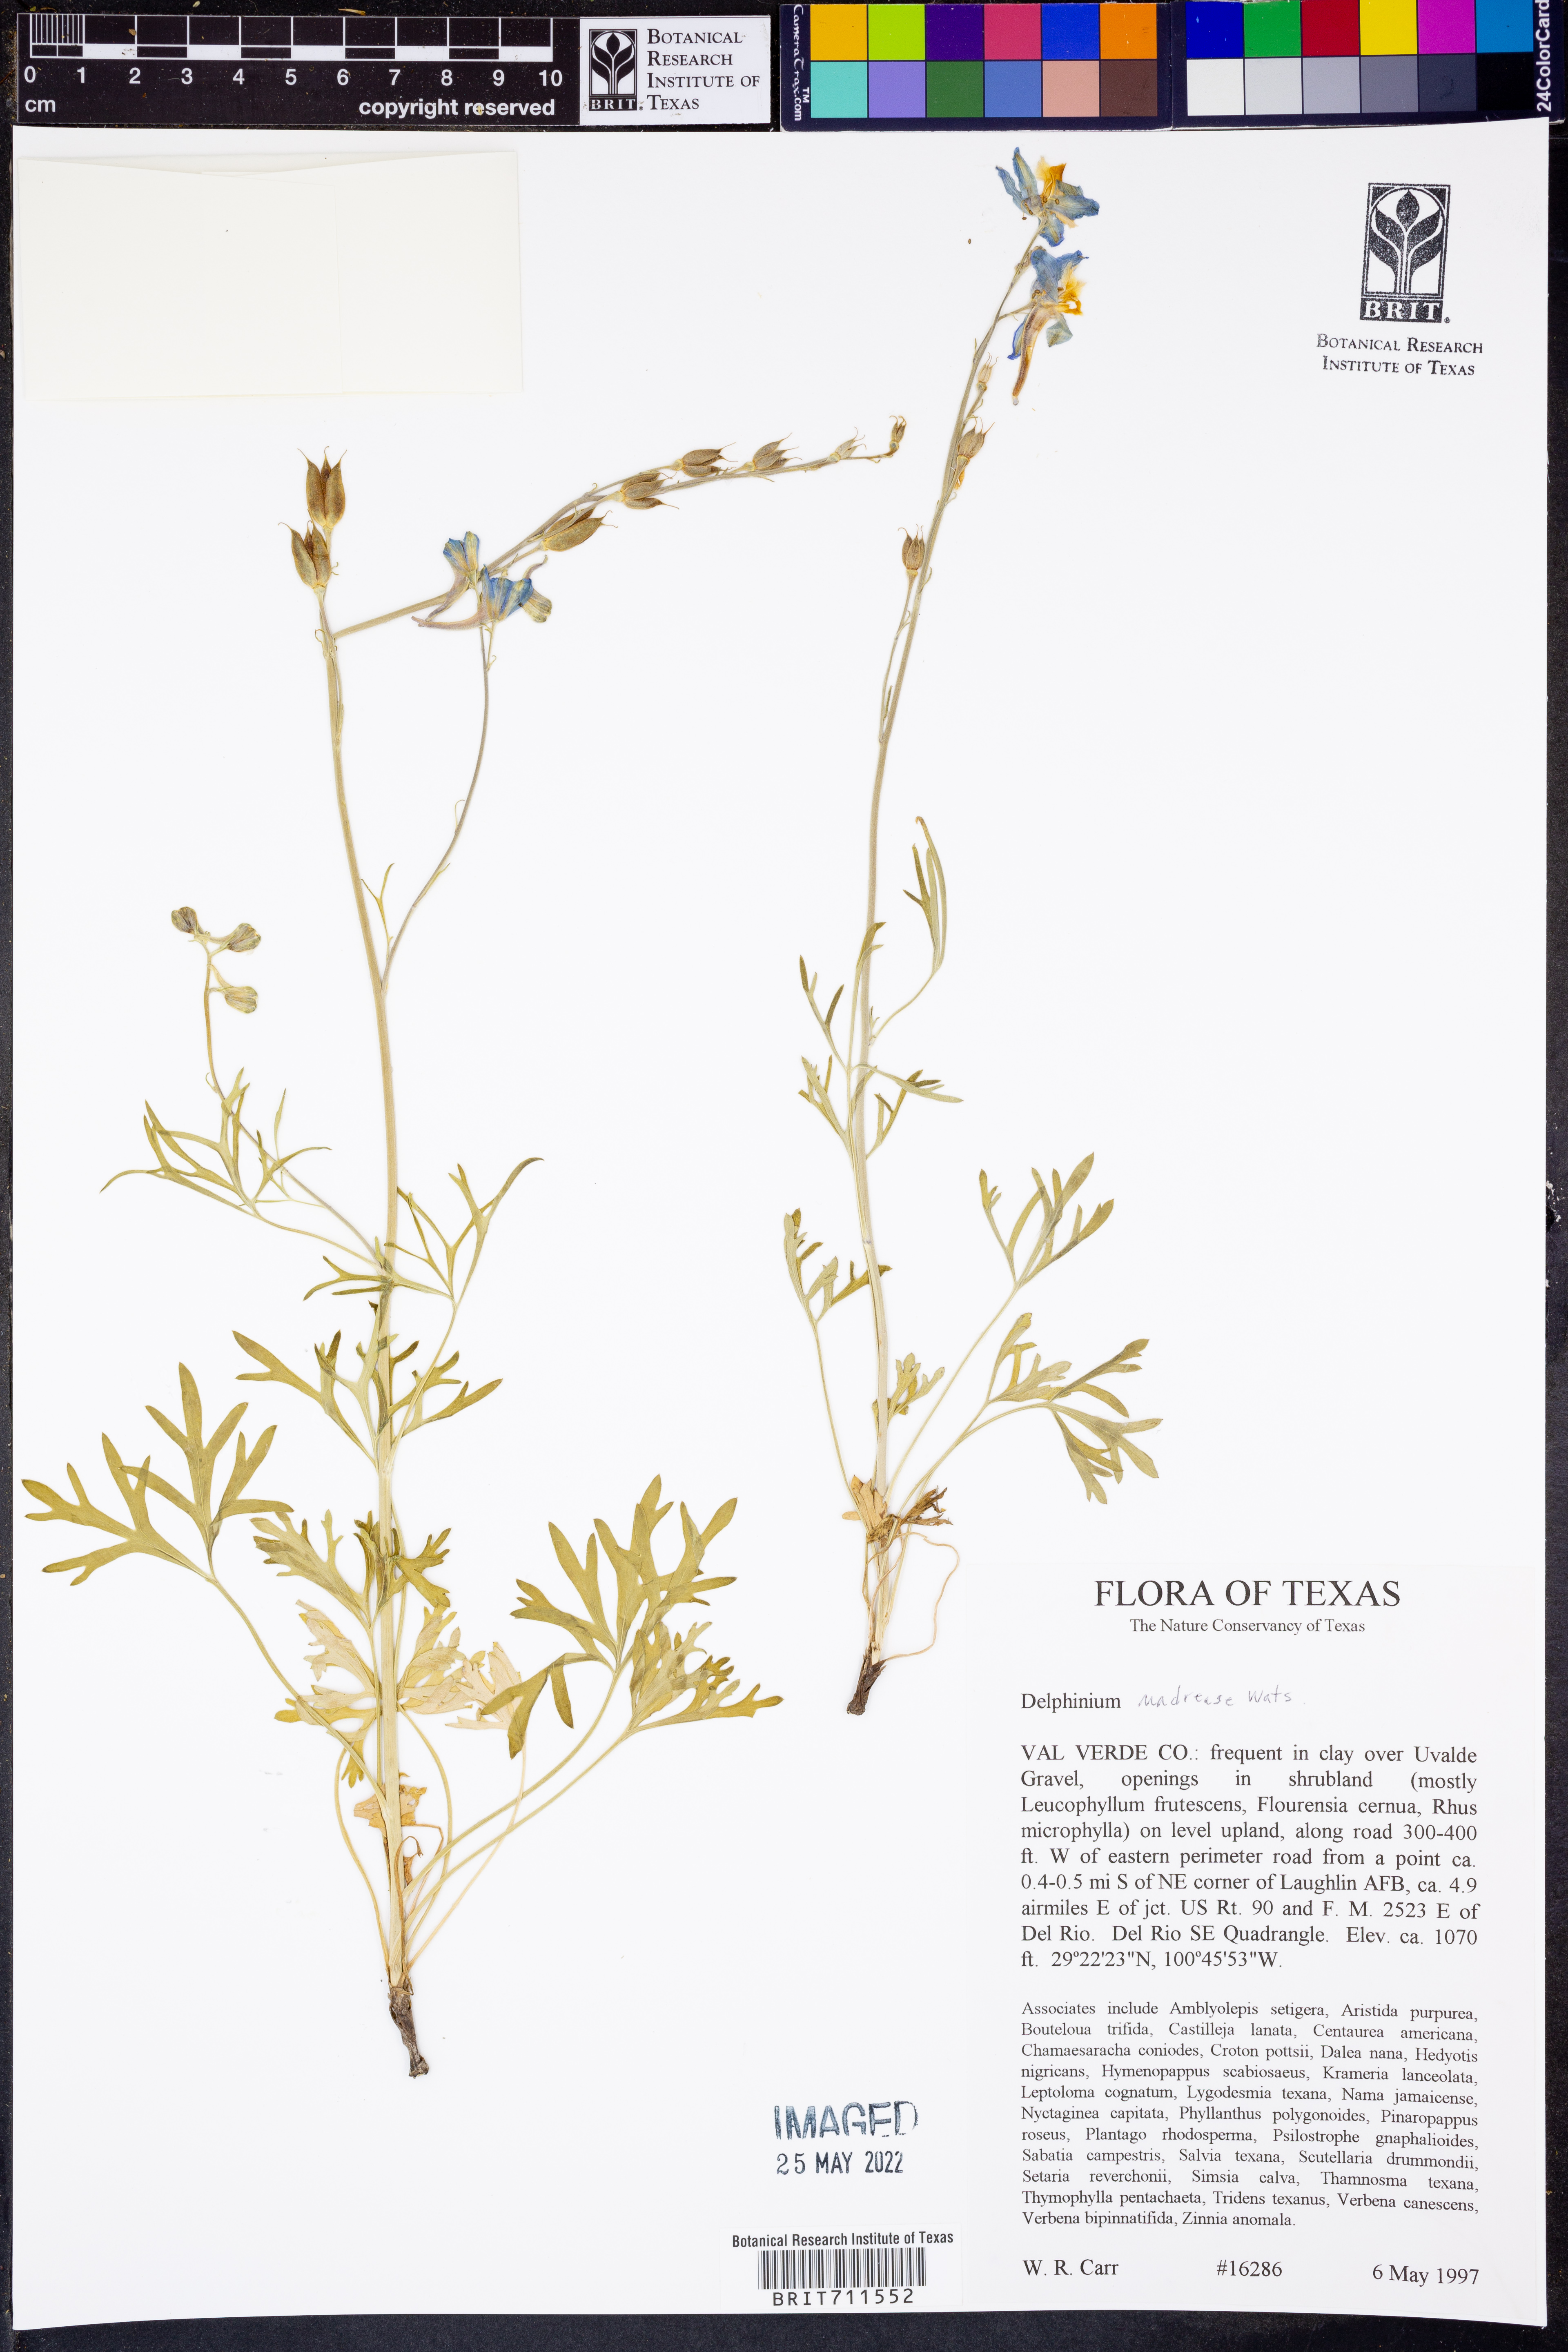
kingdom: Plantae
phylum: Tracheophyta
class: Magnoliopsida
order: Ranunculales
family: Ranunculaceae
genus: Delphinium
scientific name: Delphinium madrense
